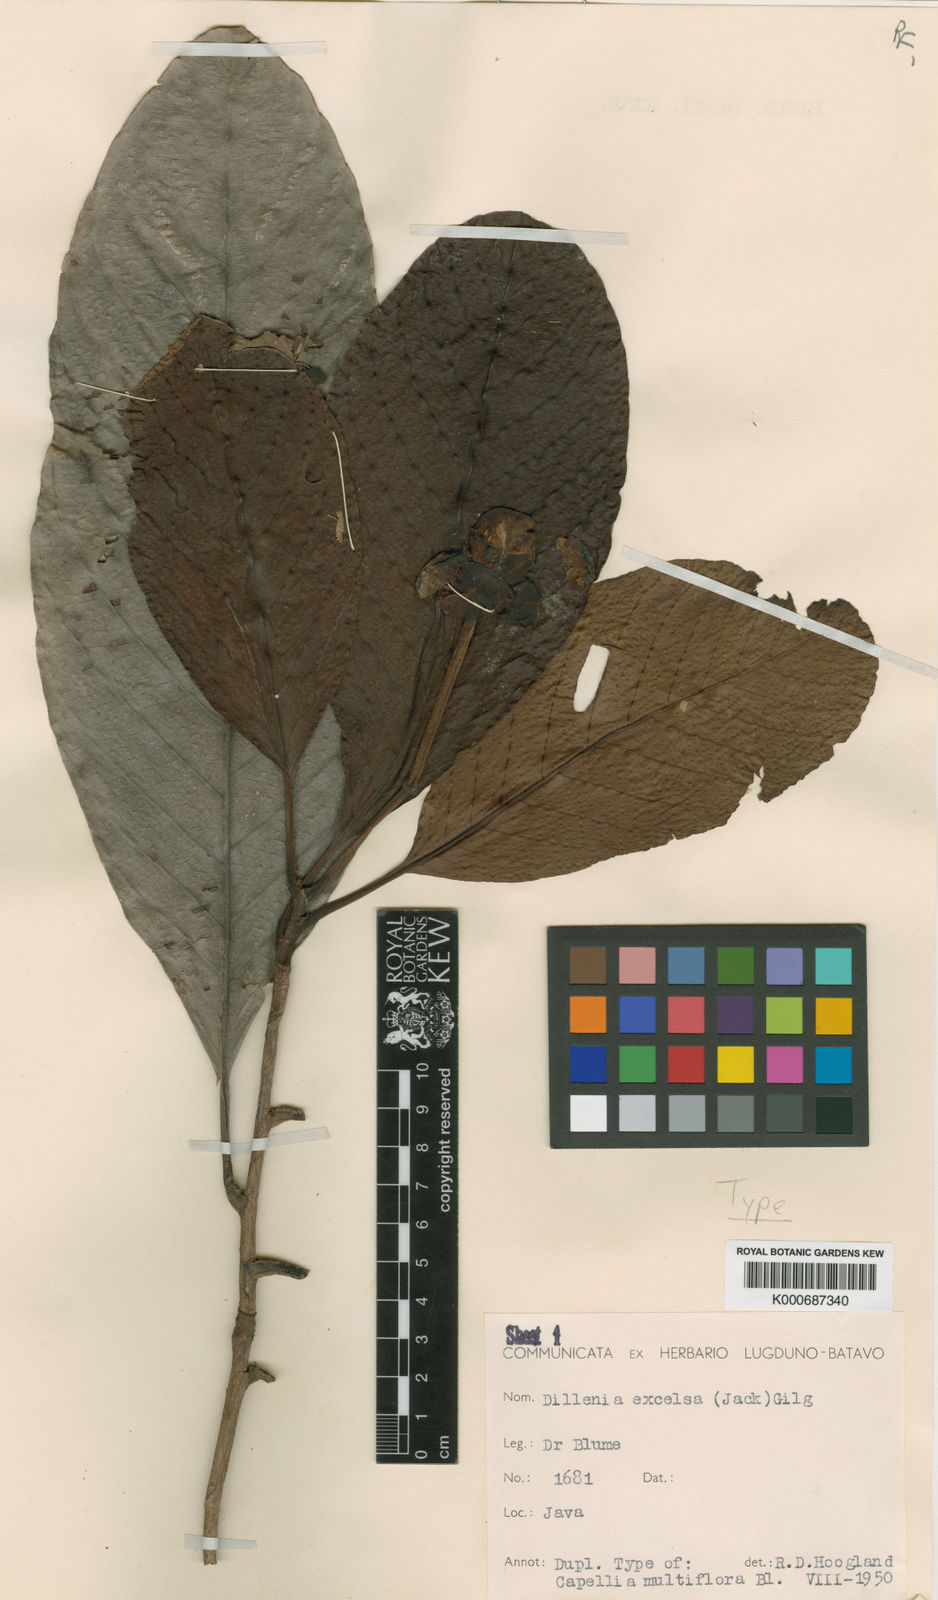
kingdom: Plantae
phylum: Tracheophyta
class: Magnoliopsida
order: Dilleniales
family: Dilleniaceae
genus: Dillenia
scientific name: Dillenia
